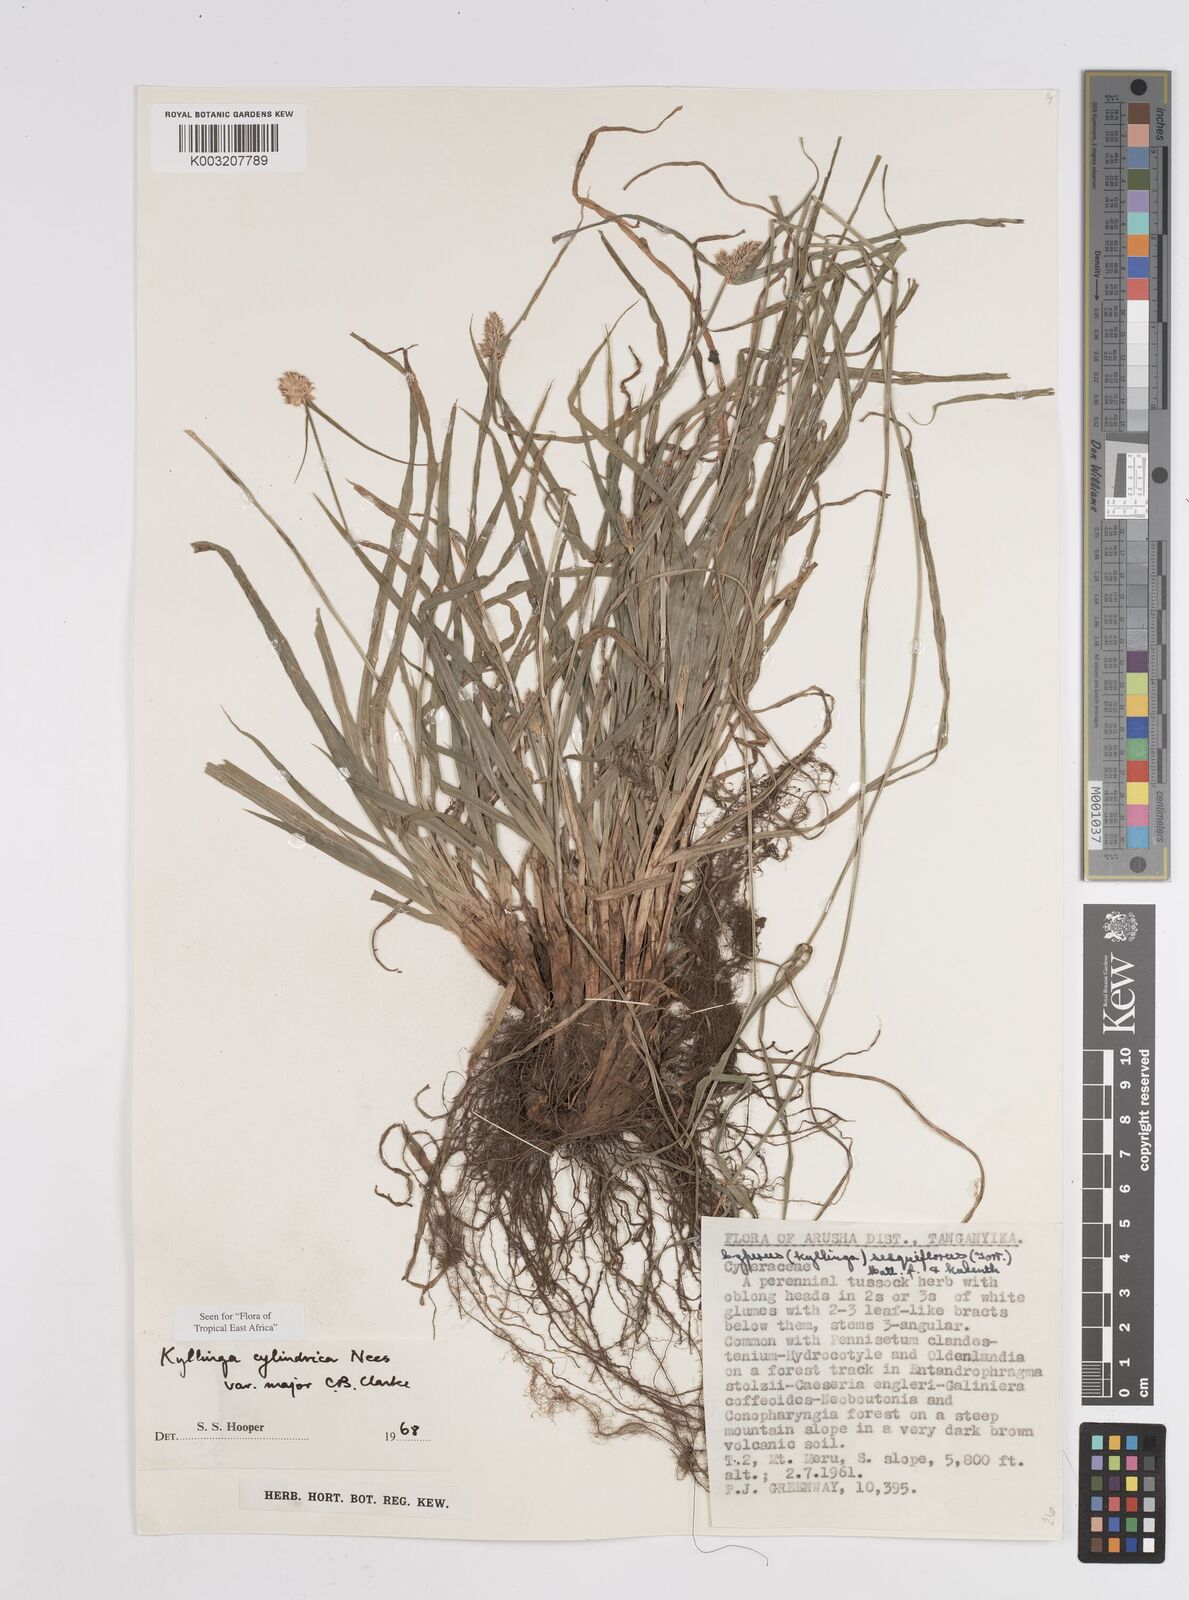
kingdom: Plantae
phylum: Tracheophyta
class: Liliopsida
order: Poales
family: Cyperaceae
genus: Cyperus
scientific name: Cyperus
